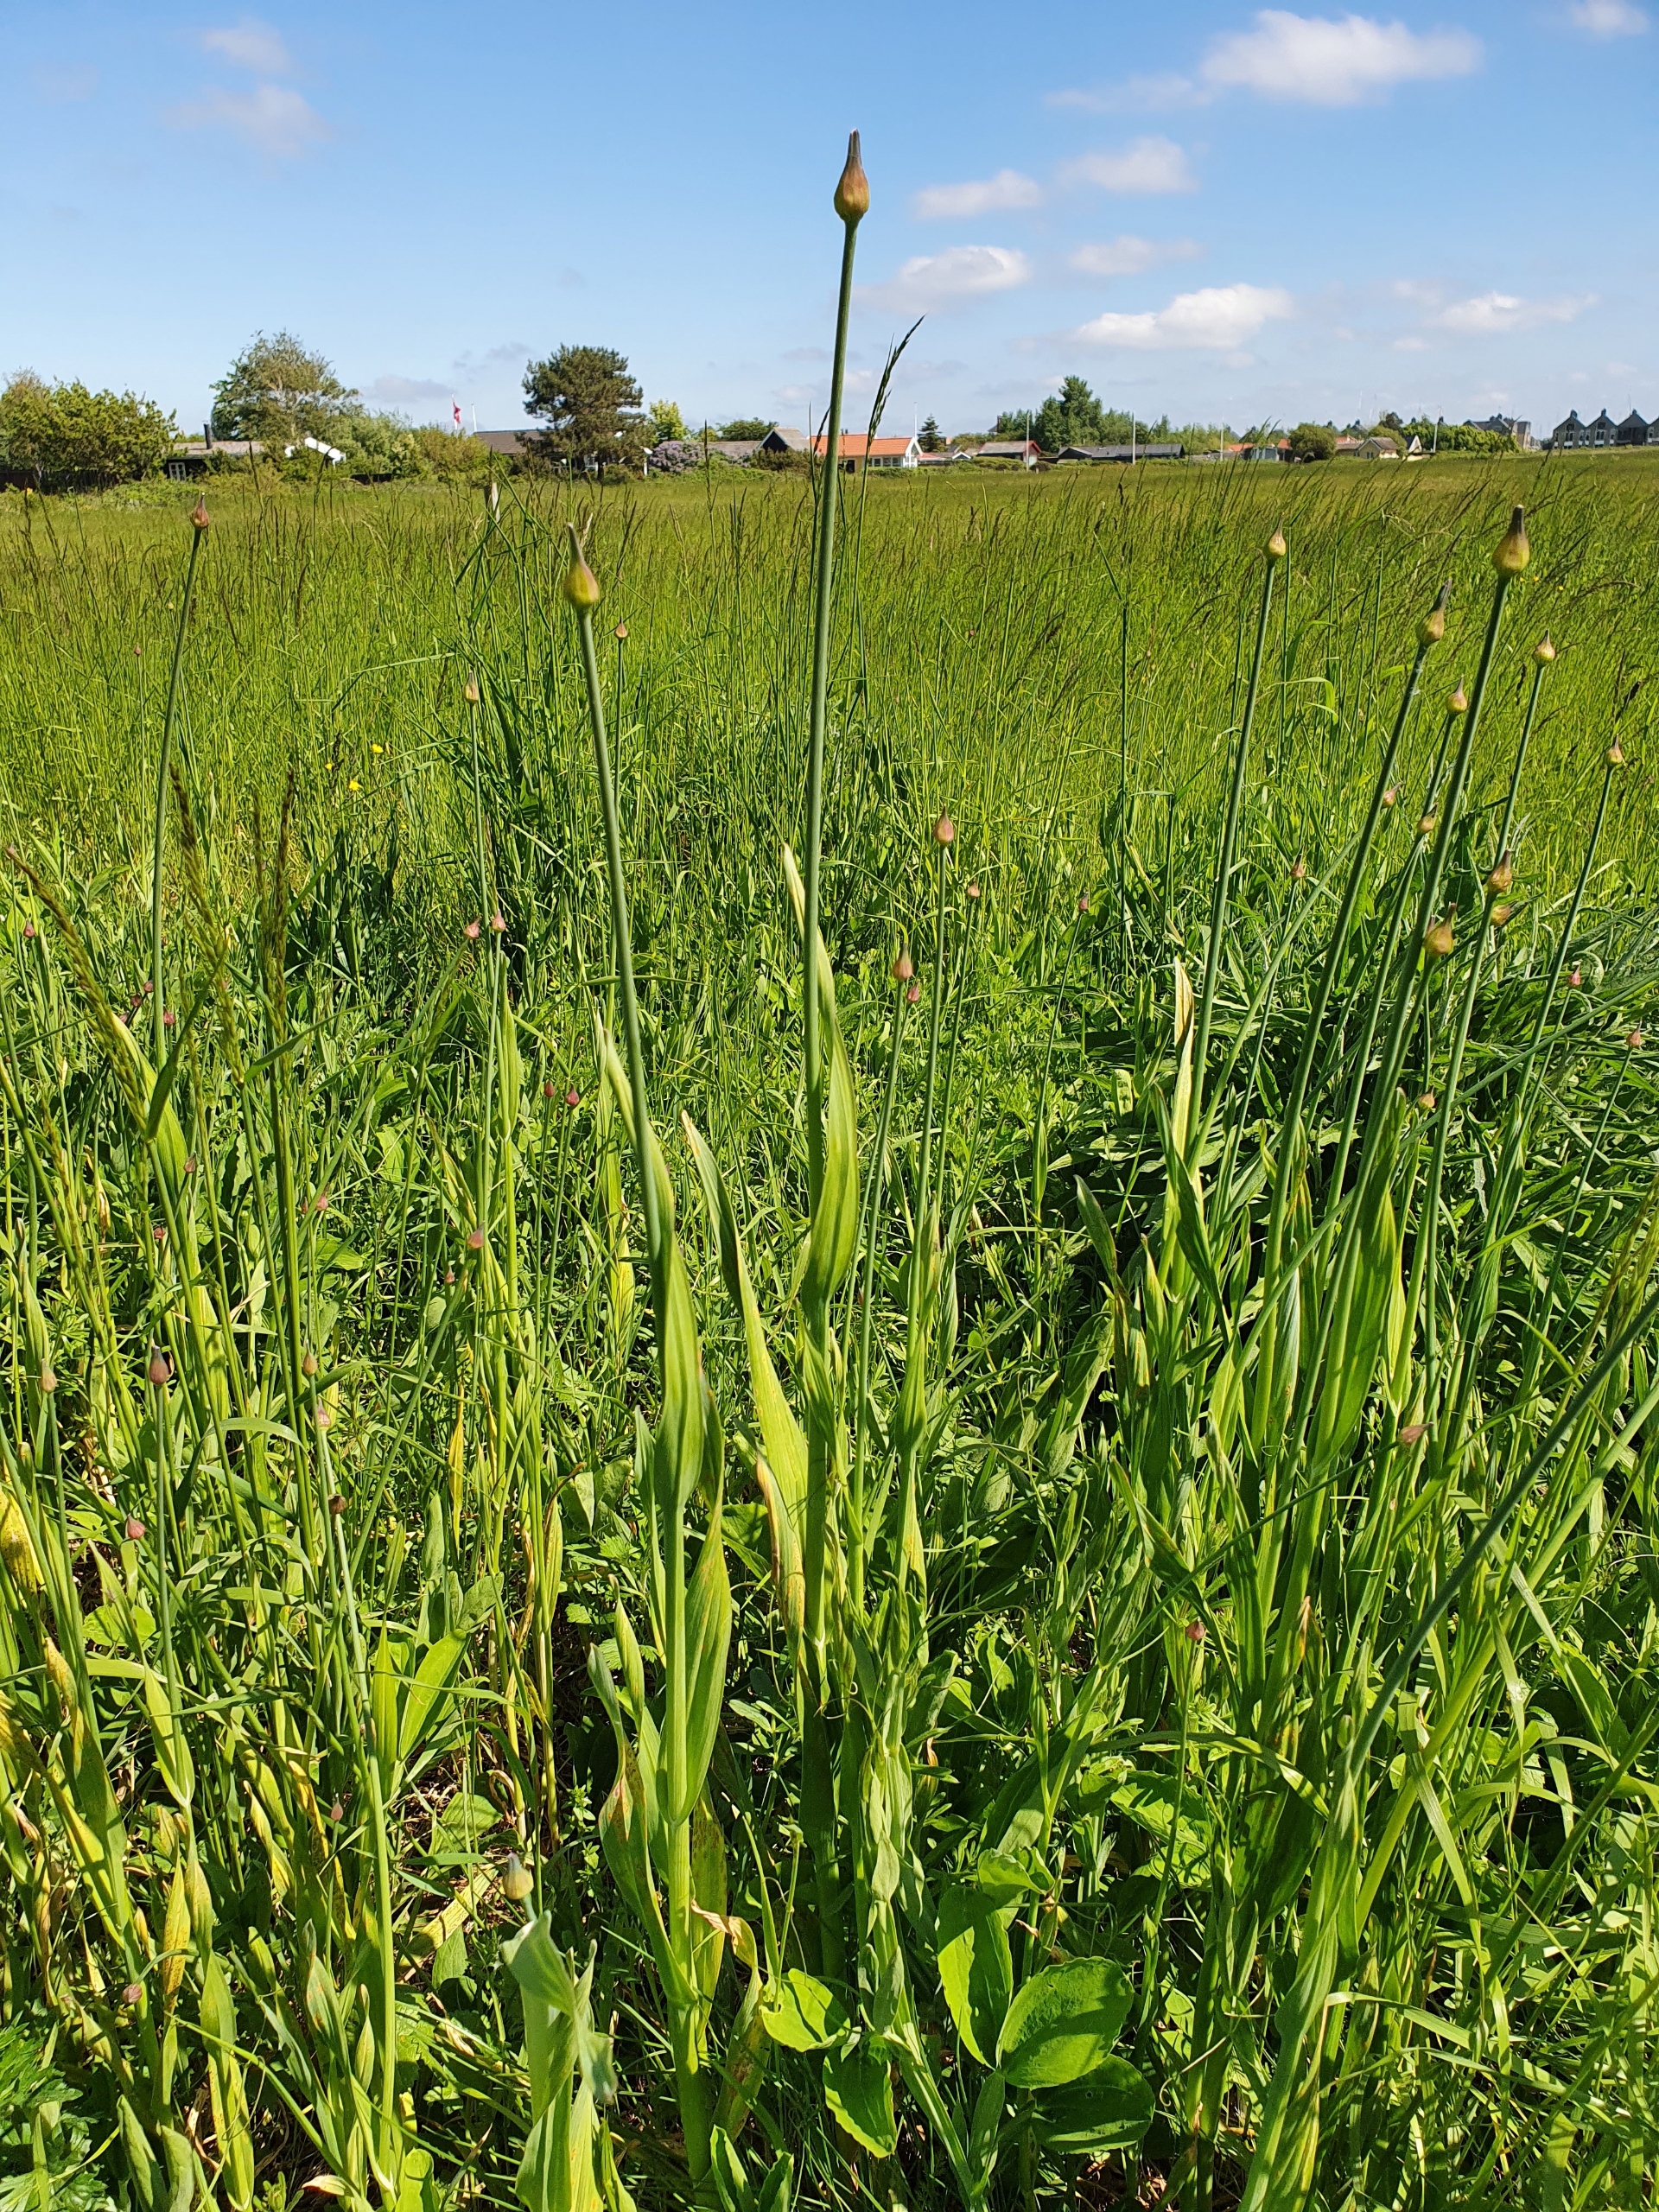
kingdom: Plantae
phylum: Tracheophyta
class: Liliopsida
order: Asparagales
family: Amaryllidaceae
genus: Allium
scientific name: Allium scorodoprasum
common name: Skov-løg
